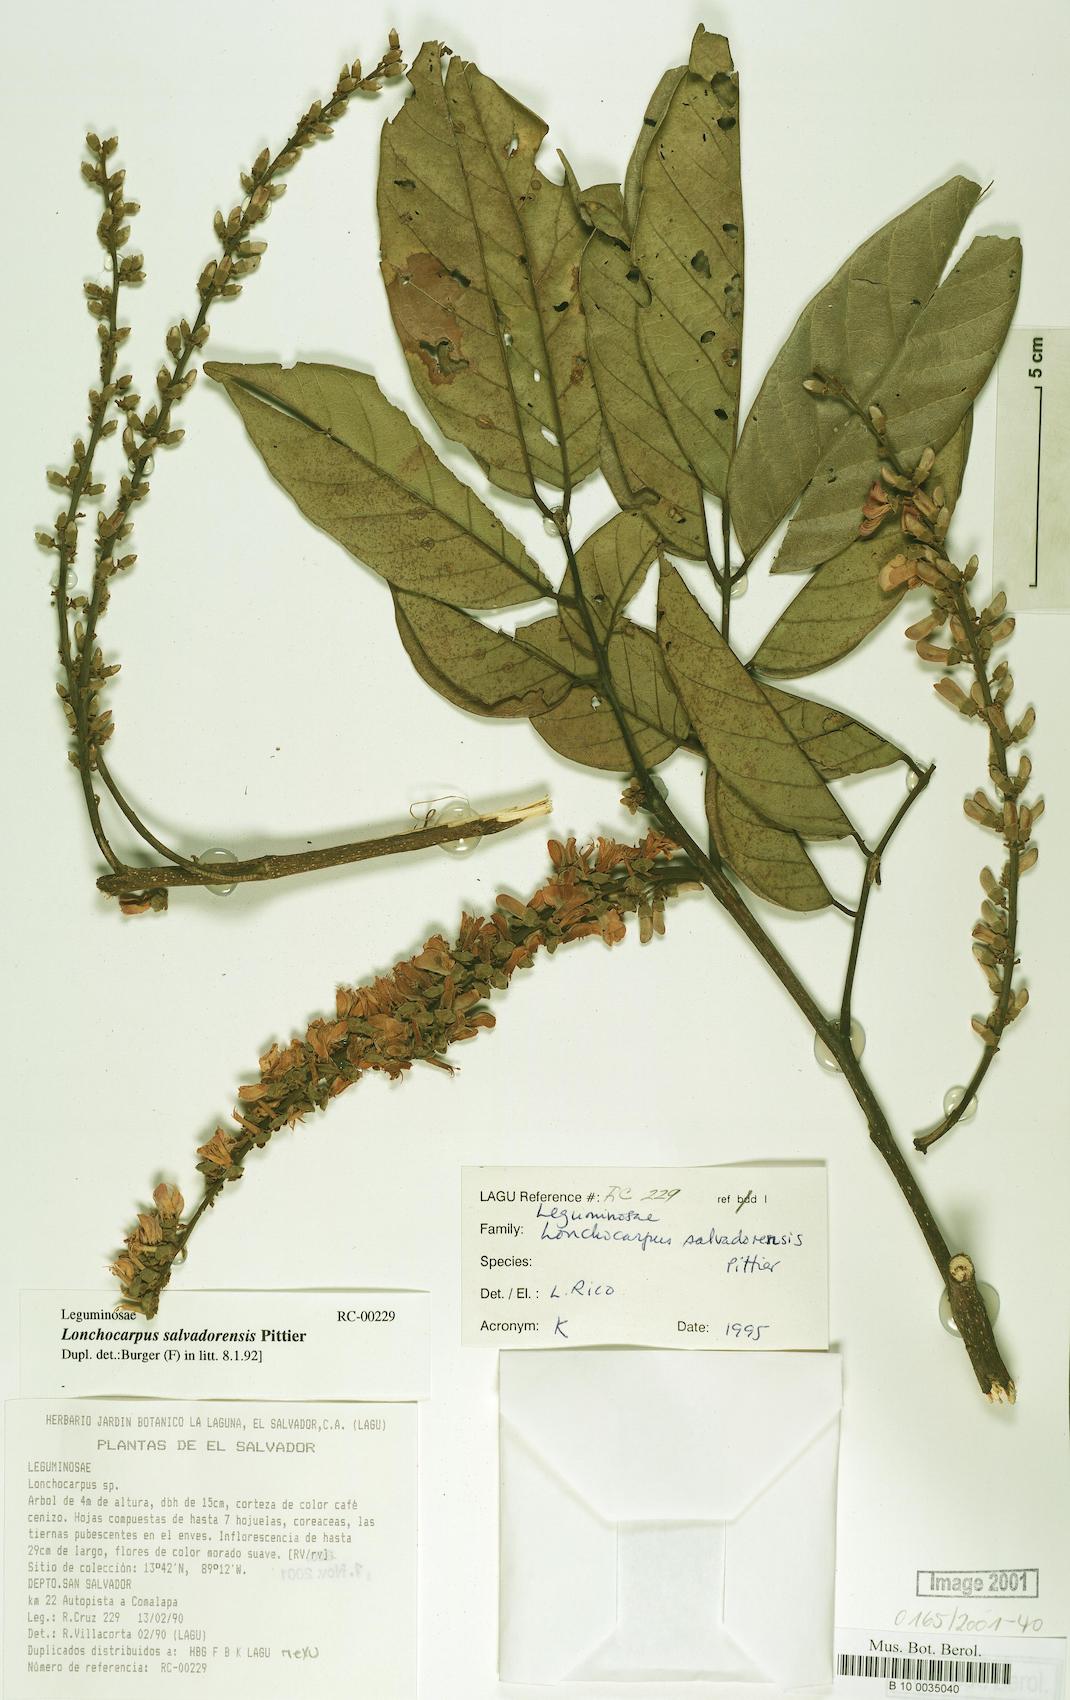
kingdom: Plantae
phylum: Tracheophyta
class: Magnoliopsida
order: Fabales
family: Fabaceae
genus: Lonchocarpus
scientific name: Lonchocarpus salvadorensis
